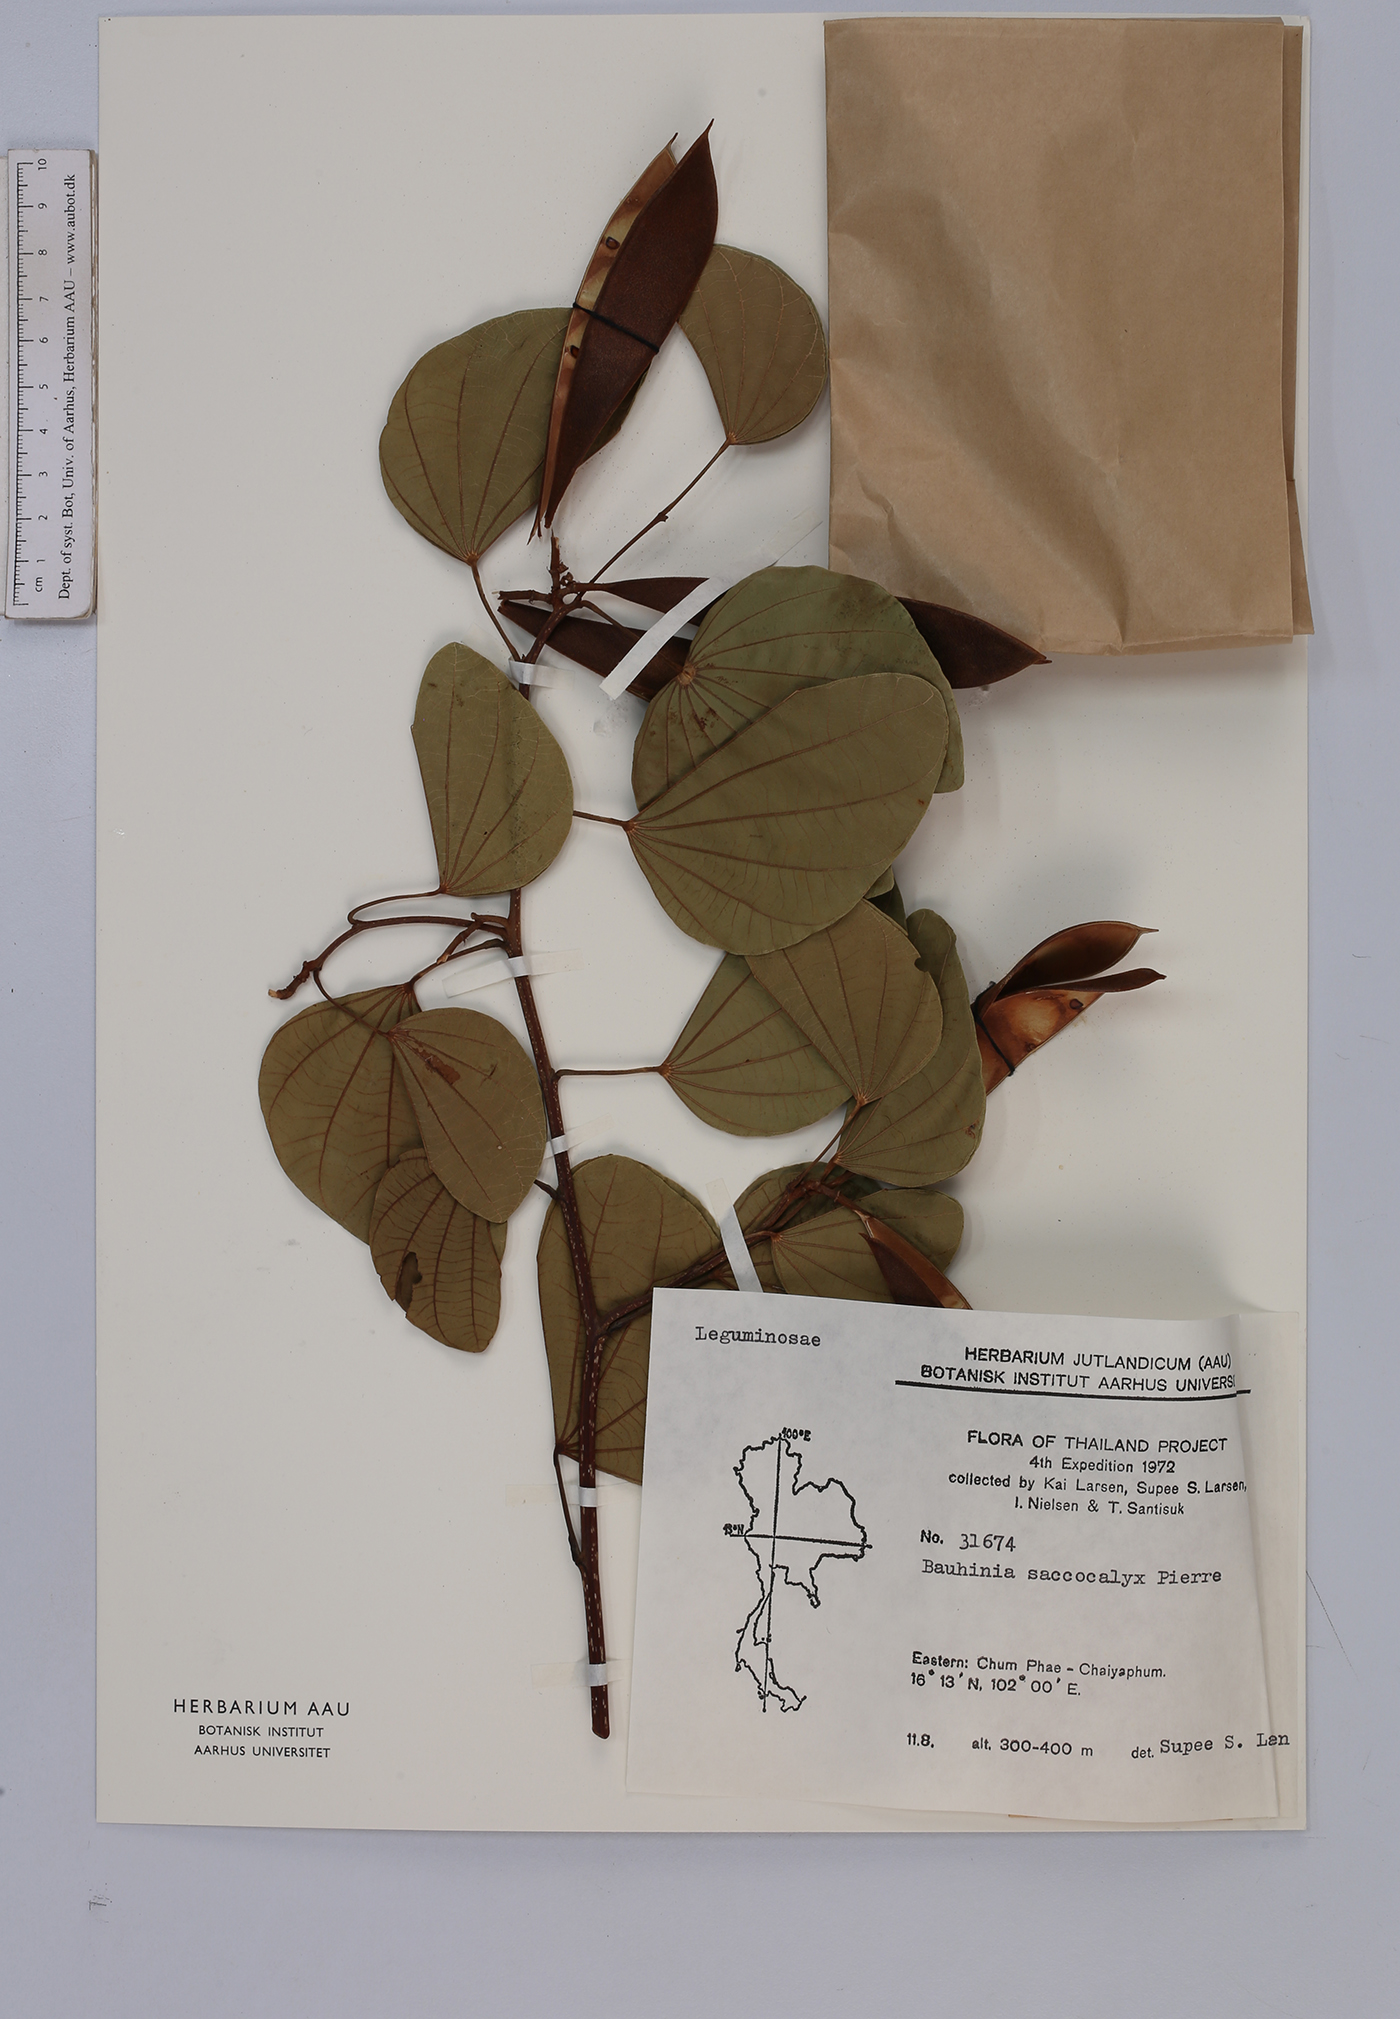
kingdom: Plantae
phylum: Tracheophyta
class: Magnoliopsida
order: Fabales
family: Fabaceae
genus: Bauhinia
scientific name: Bauhinia saccocalyx
